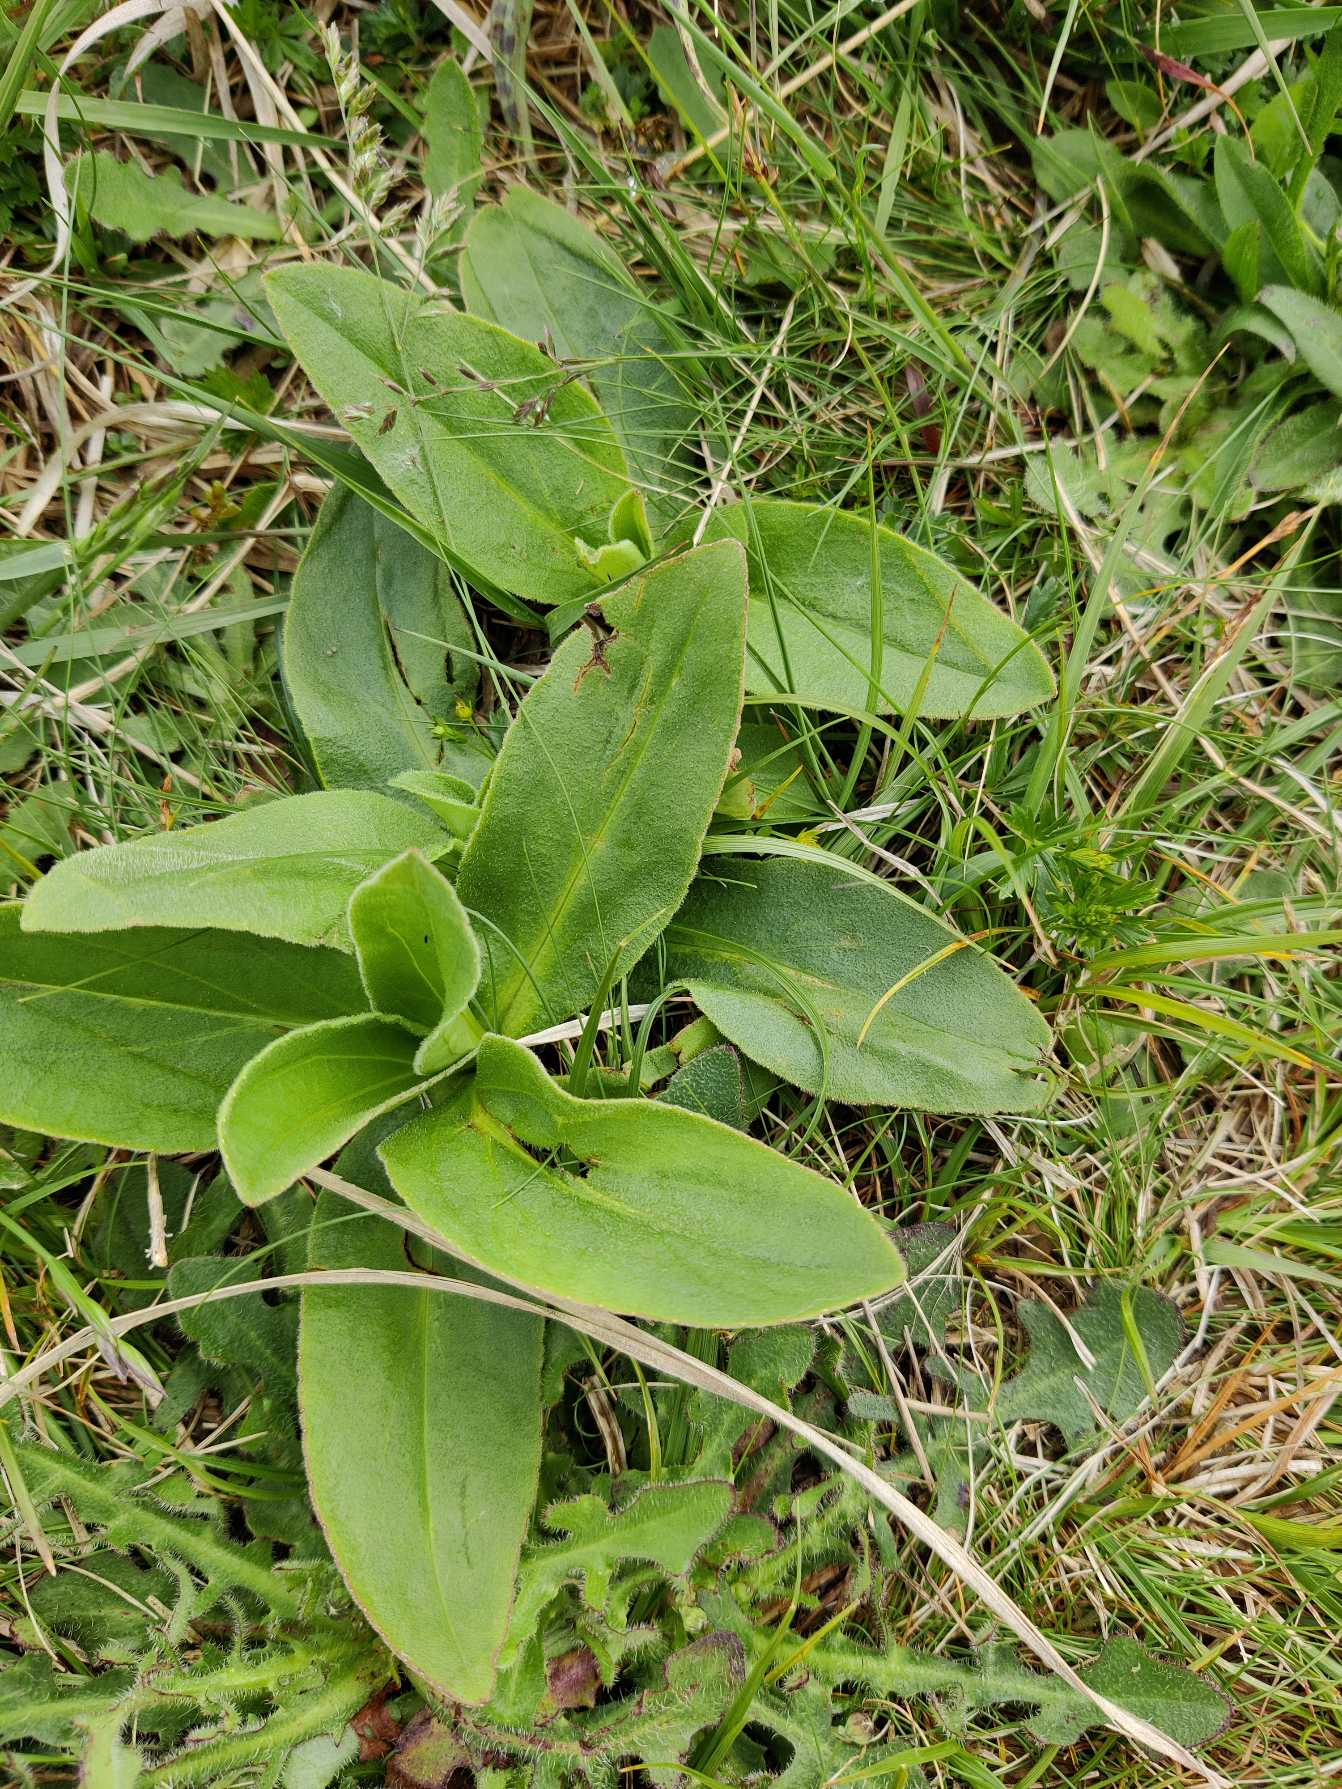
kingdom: Plantae
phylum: Tracheophyta
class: Magnoliopsida
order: Asterales
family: Asteraceae
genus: Arnica
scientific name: Arnica montana
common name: Guldblomme
